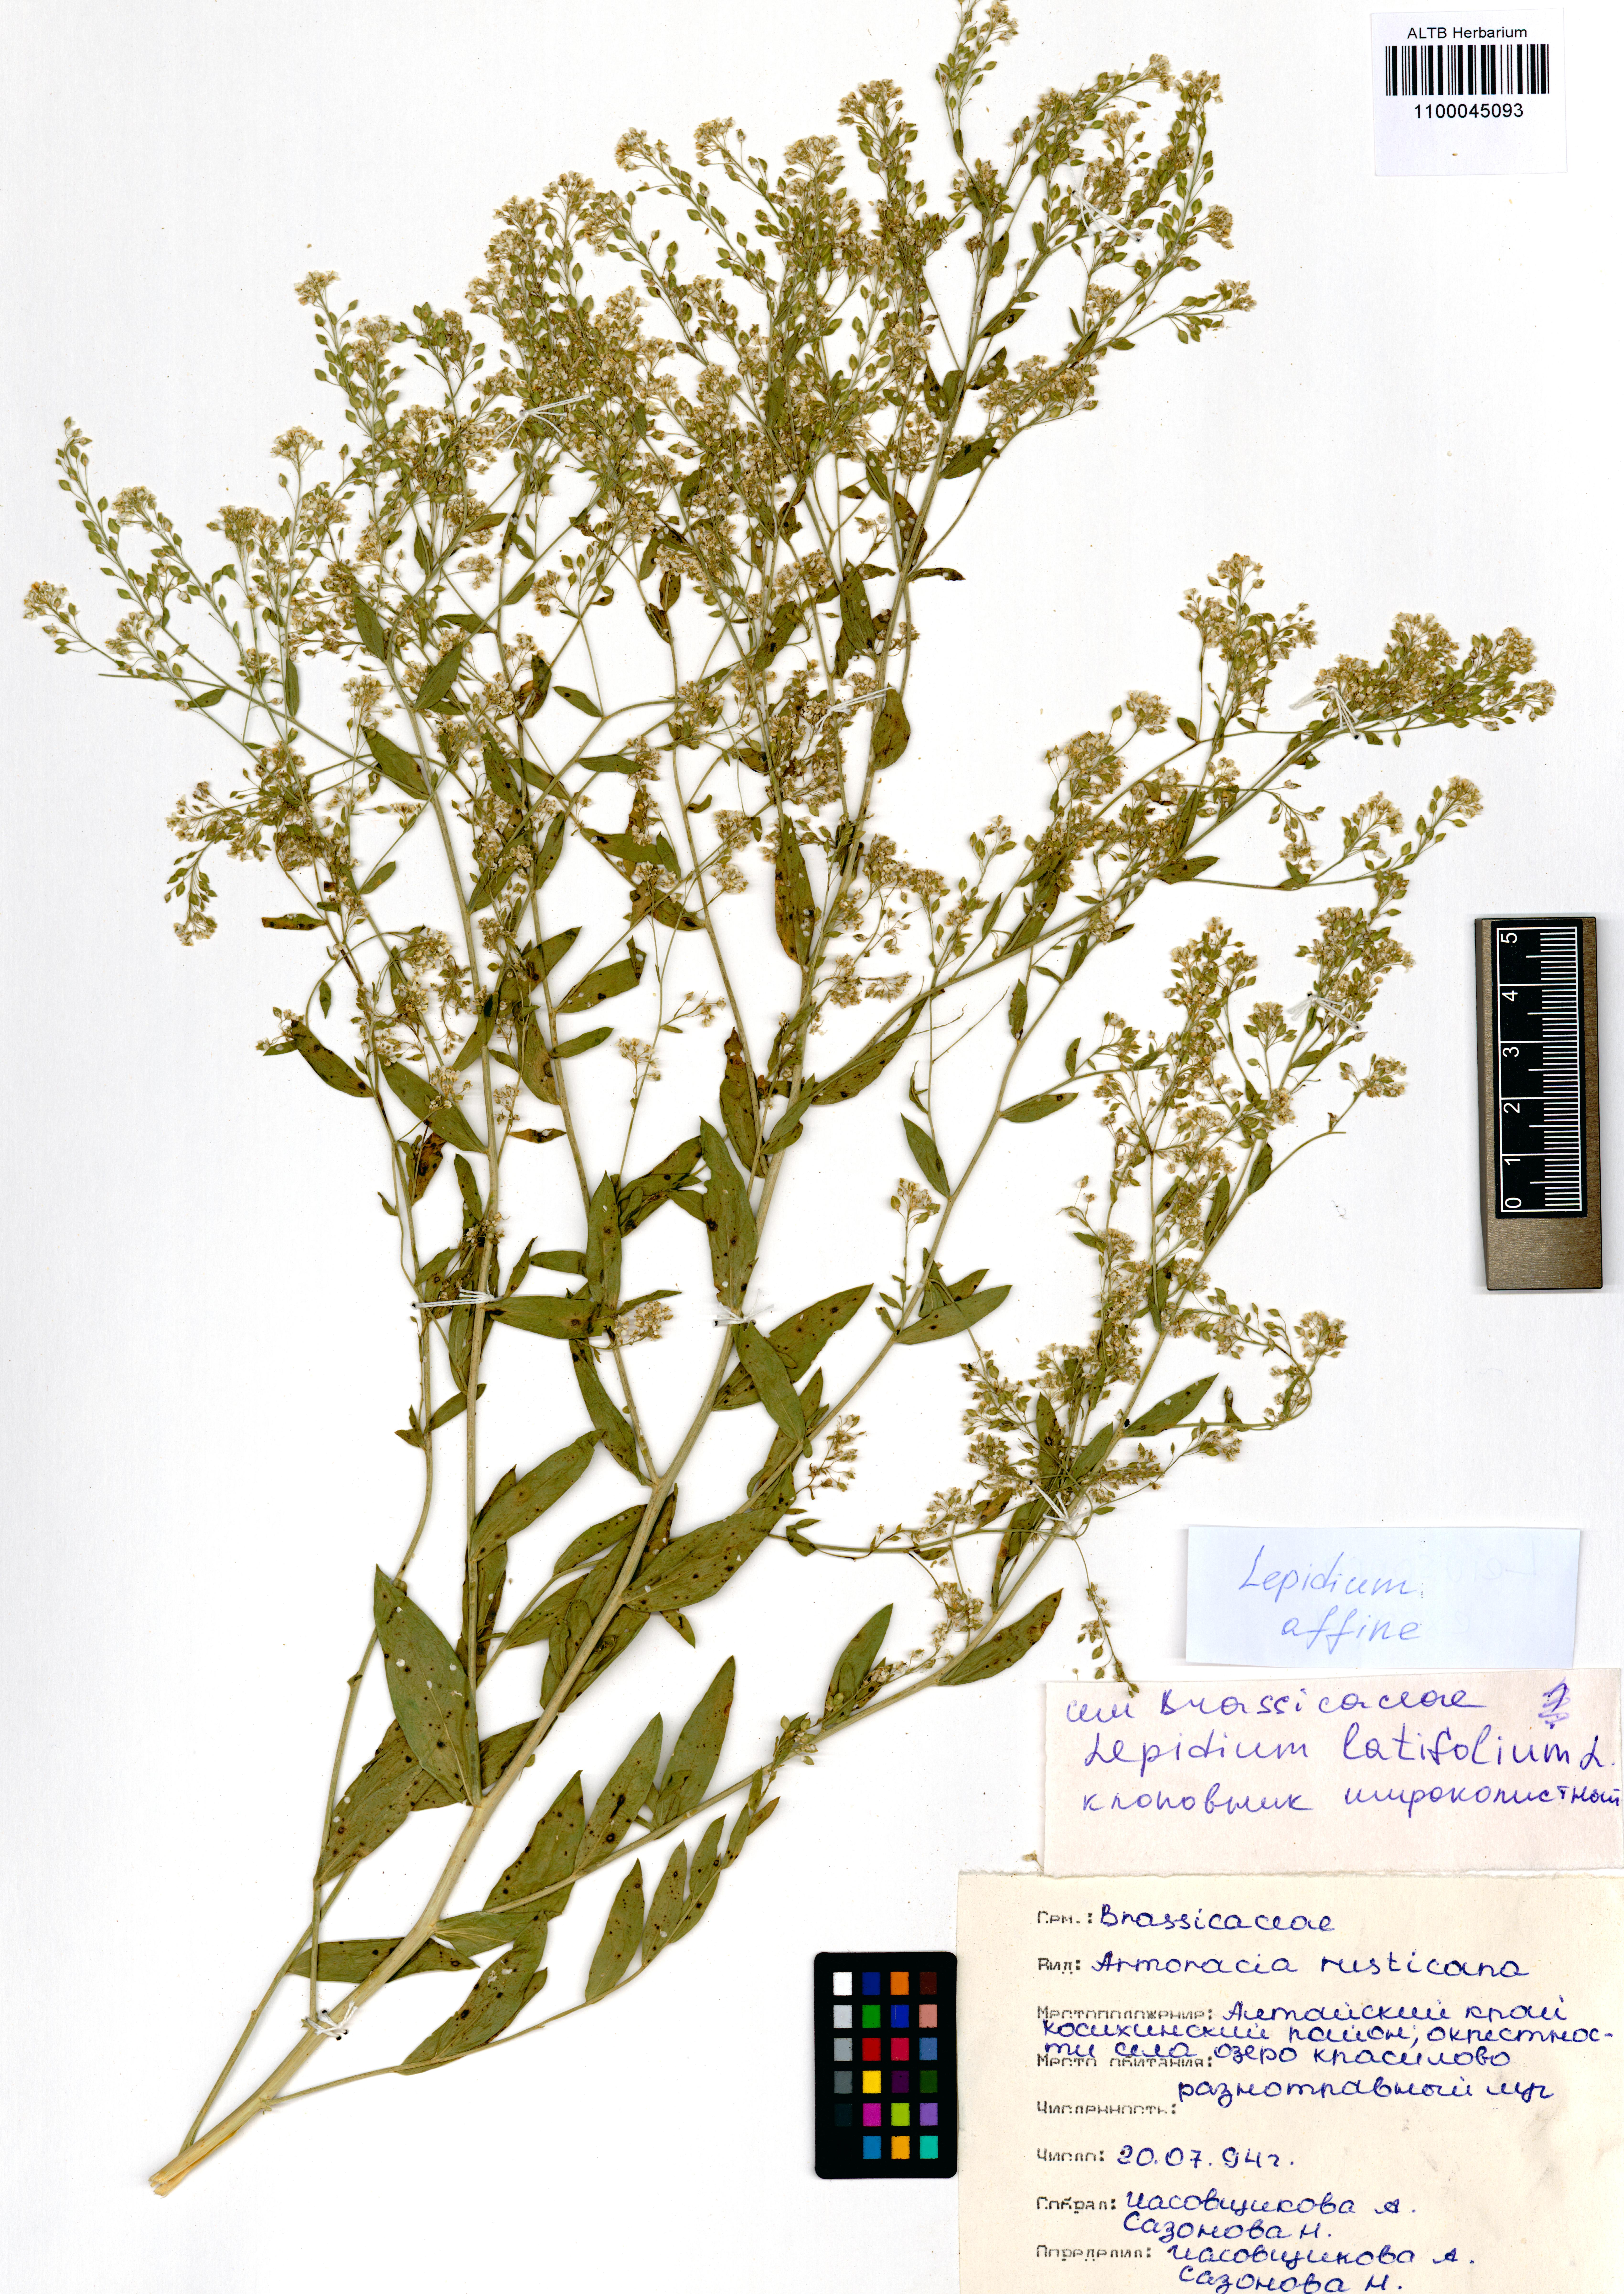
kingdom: Plantae
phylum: Tracheophyta
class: Magnoliopsida
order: Brassicales
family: Brassicaceae
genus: Lepidium
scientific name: Lepidium latifolium
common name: Dittander
